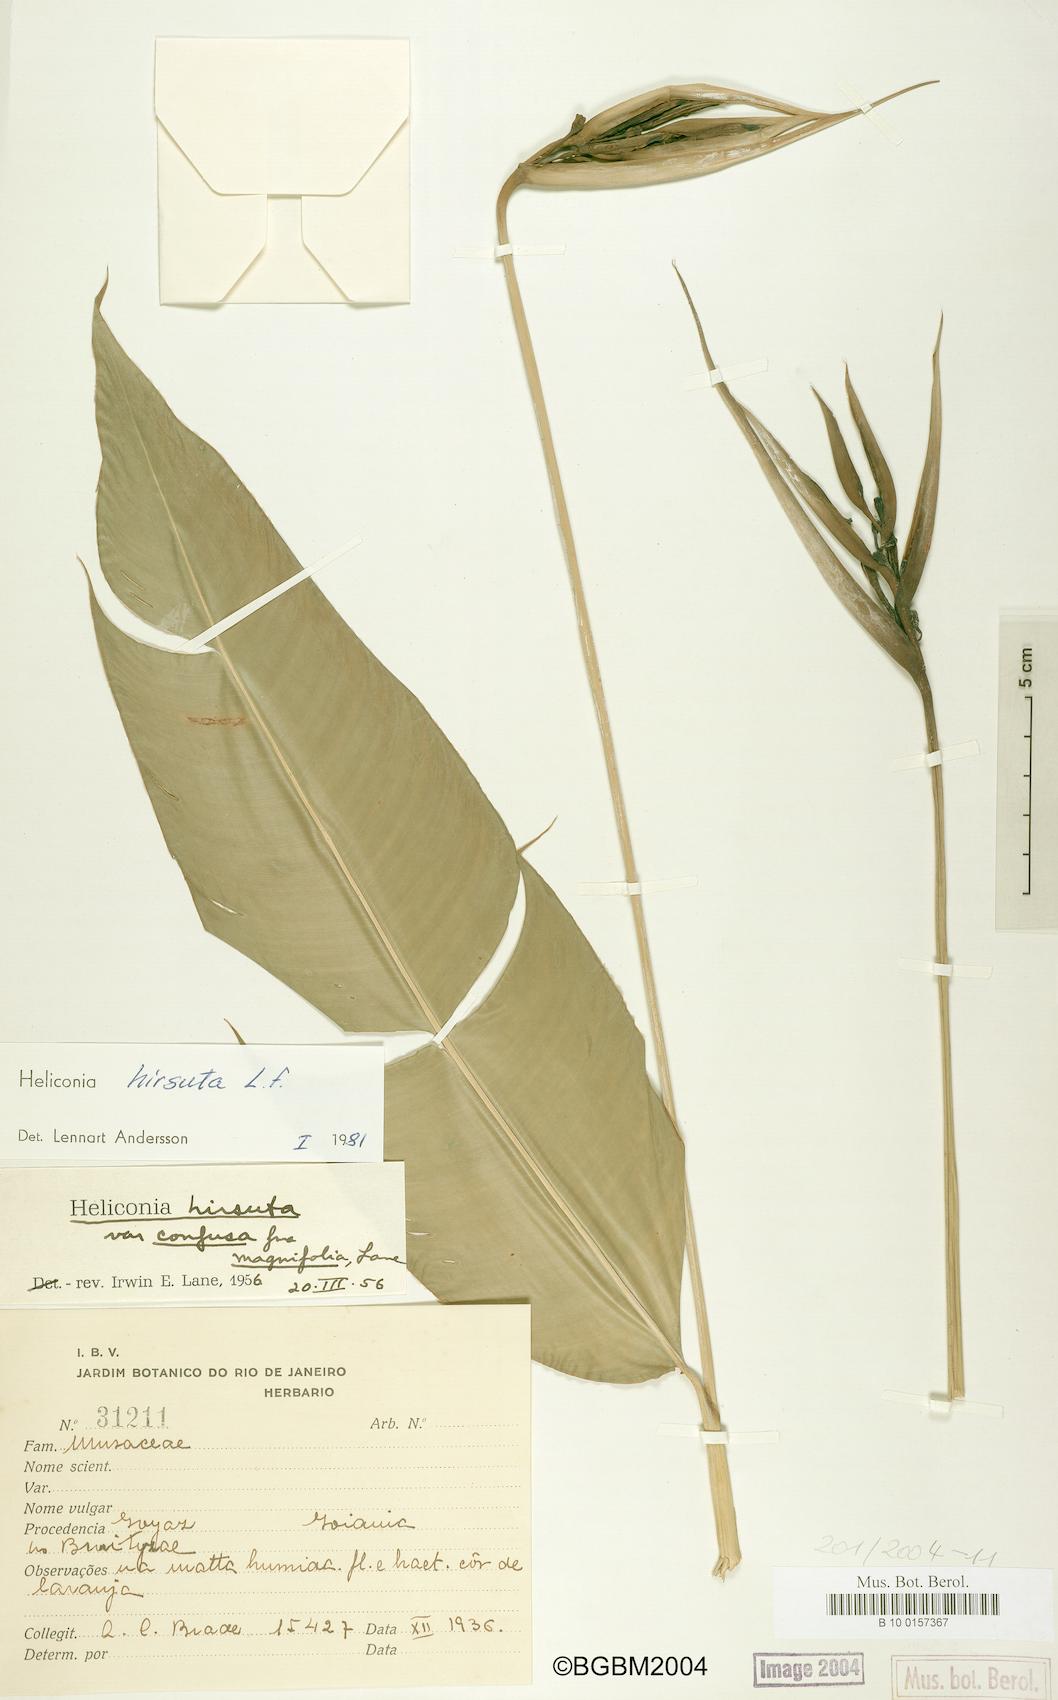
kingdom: Plantae
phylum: Tracheophyta
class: Liliopsida
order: Zingiberales
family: Heliconiaceae
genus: Heliconia
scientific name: Heliconia hirsuta
